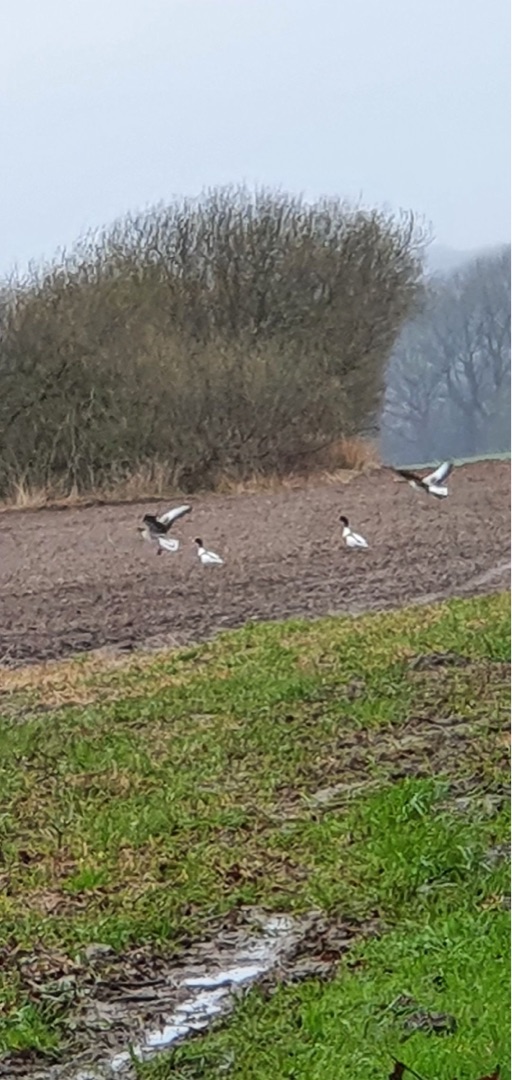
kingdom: Animalia
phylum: Chordata
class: Aves
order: Anseriformes
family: Anatidae
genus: Tadorna
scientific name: Tadorna tadorna
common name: Gravand
